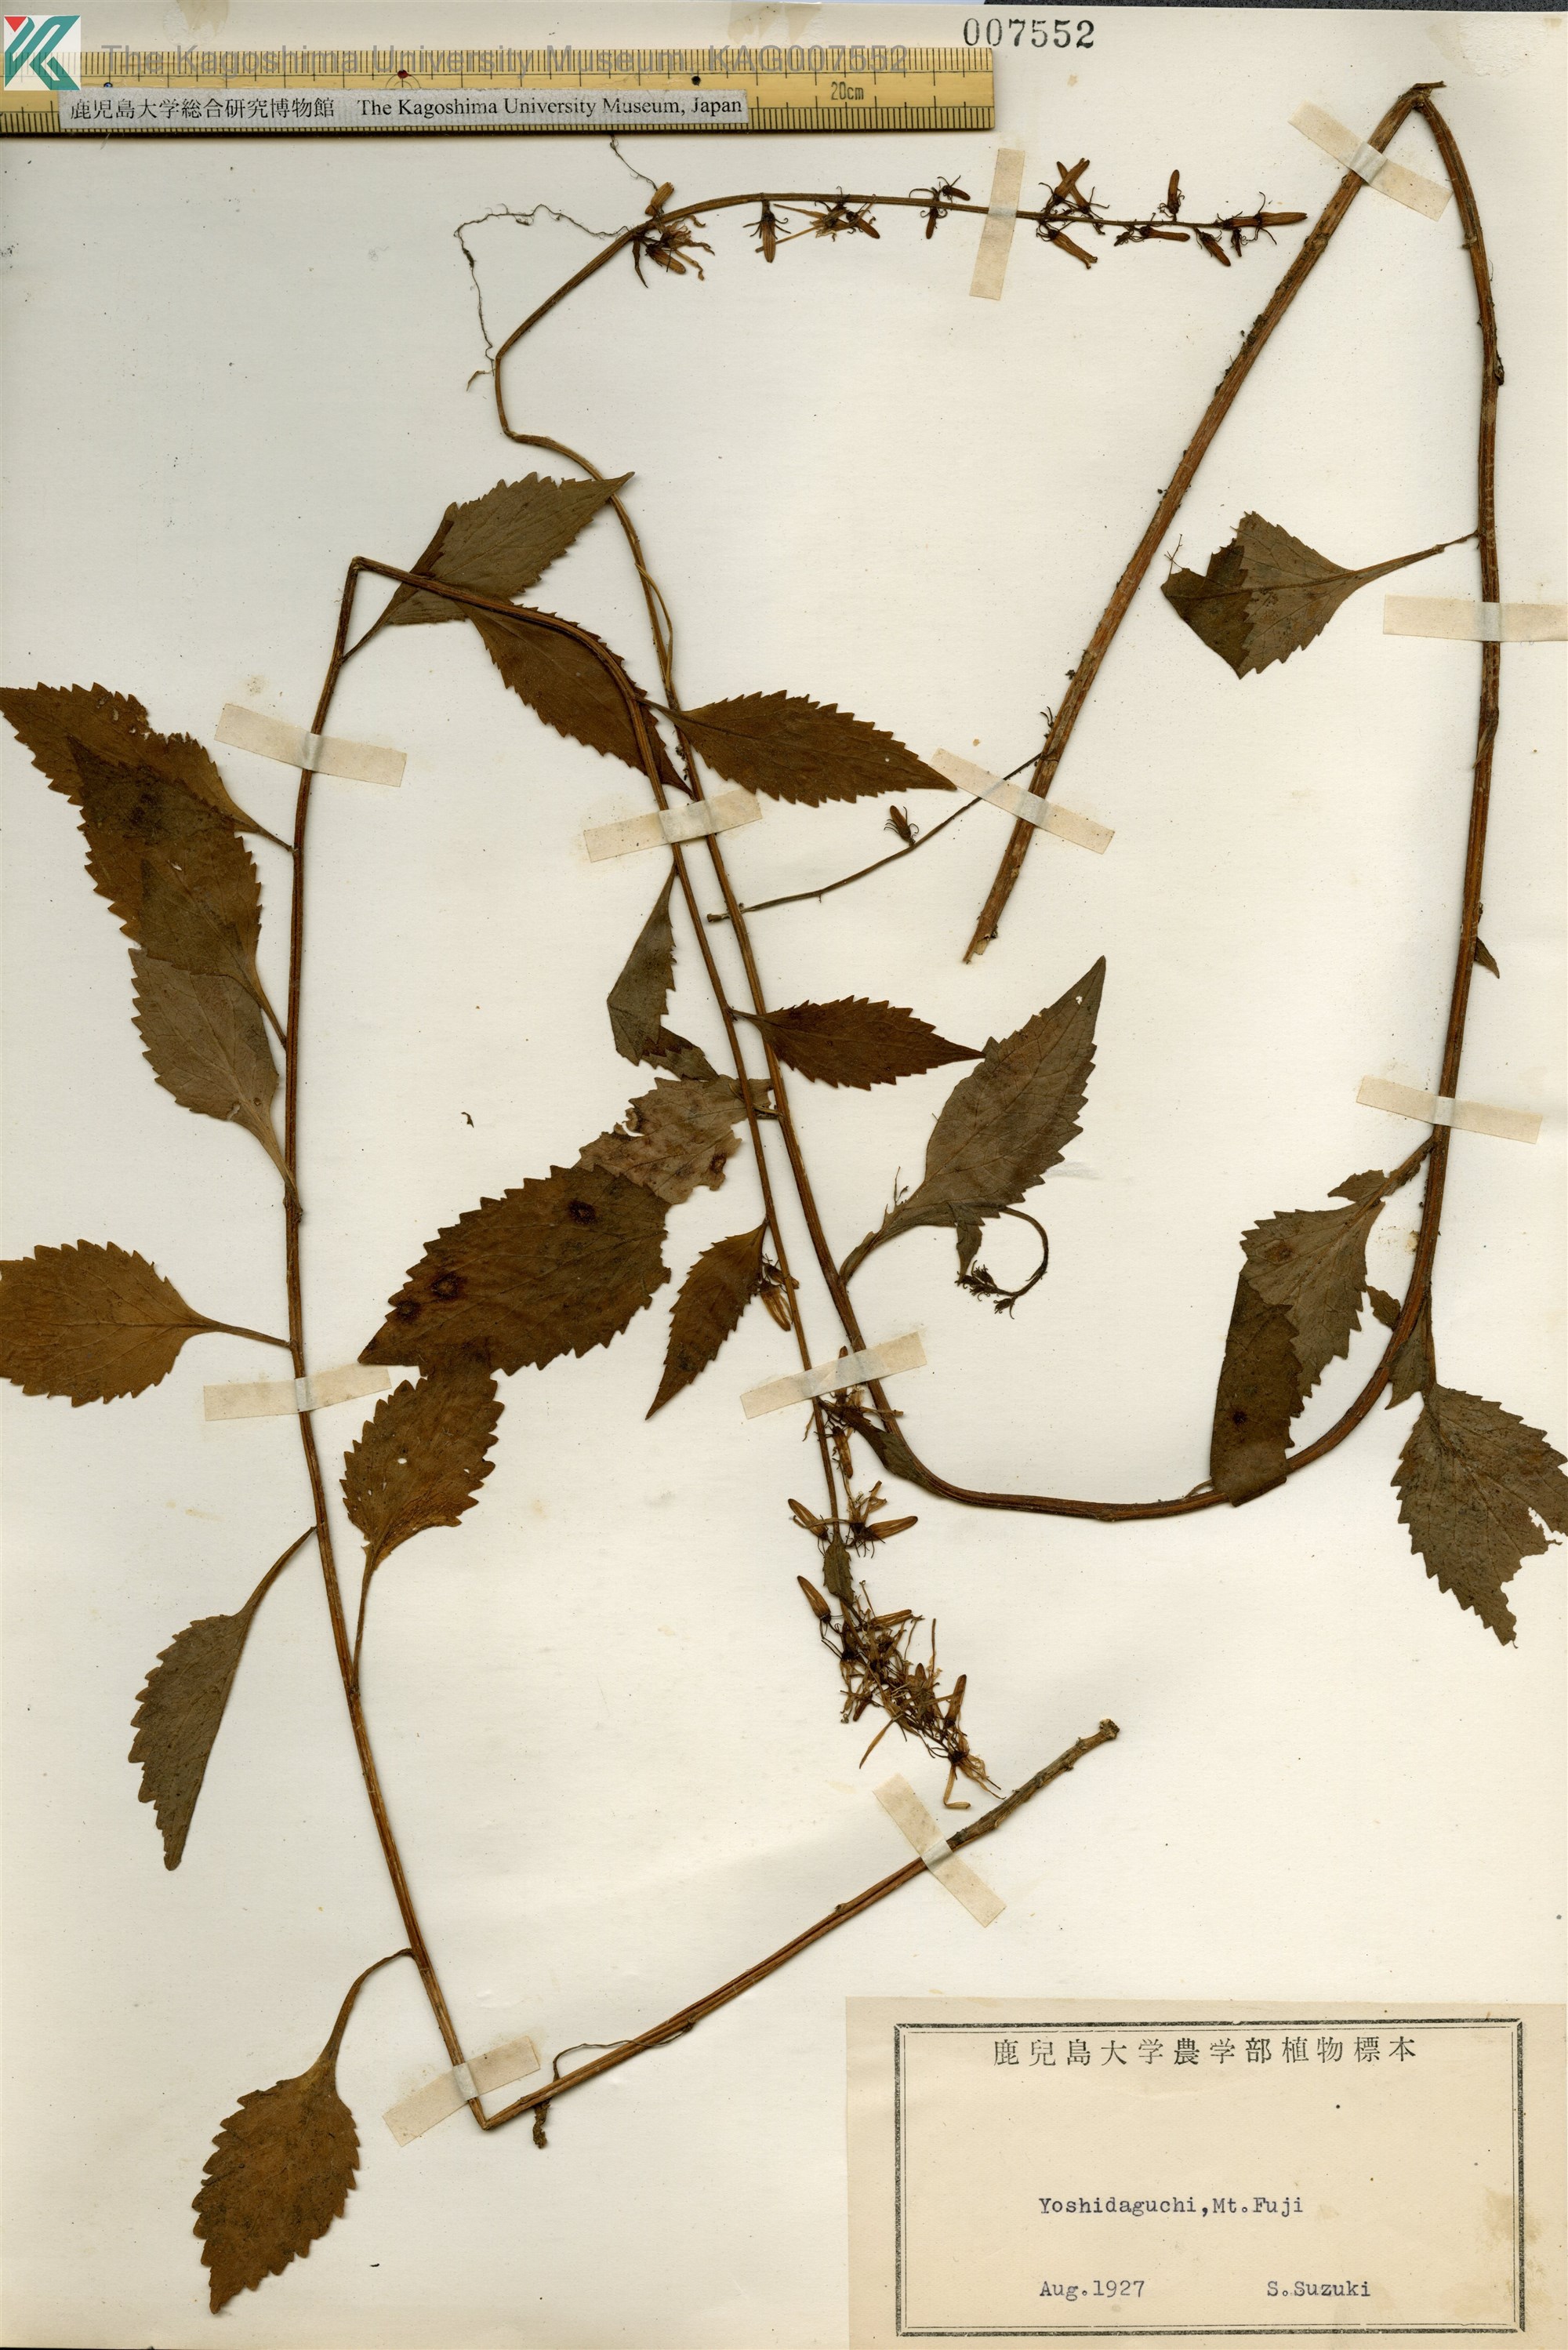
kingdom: Plantae
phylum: Tracheophyta
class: Magnoliopsida
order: Asterales
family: Campanulaceae
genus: Asyneuma
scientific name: Asyneuma japonicum
